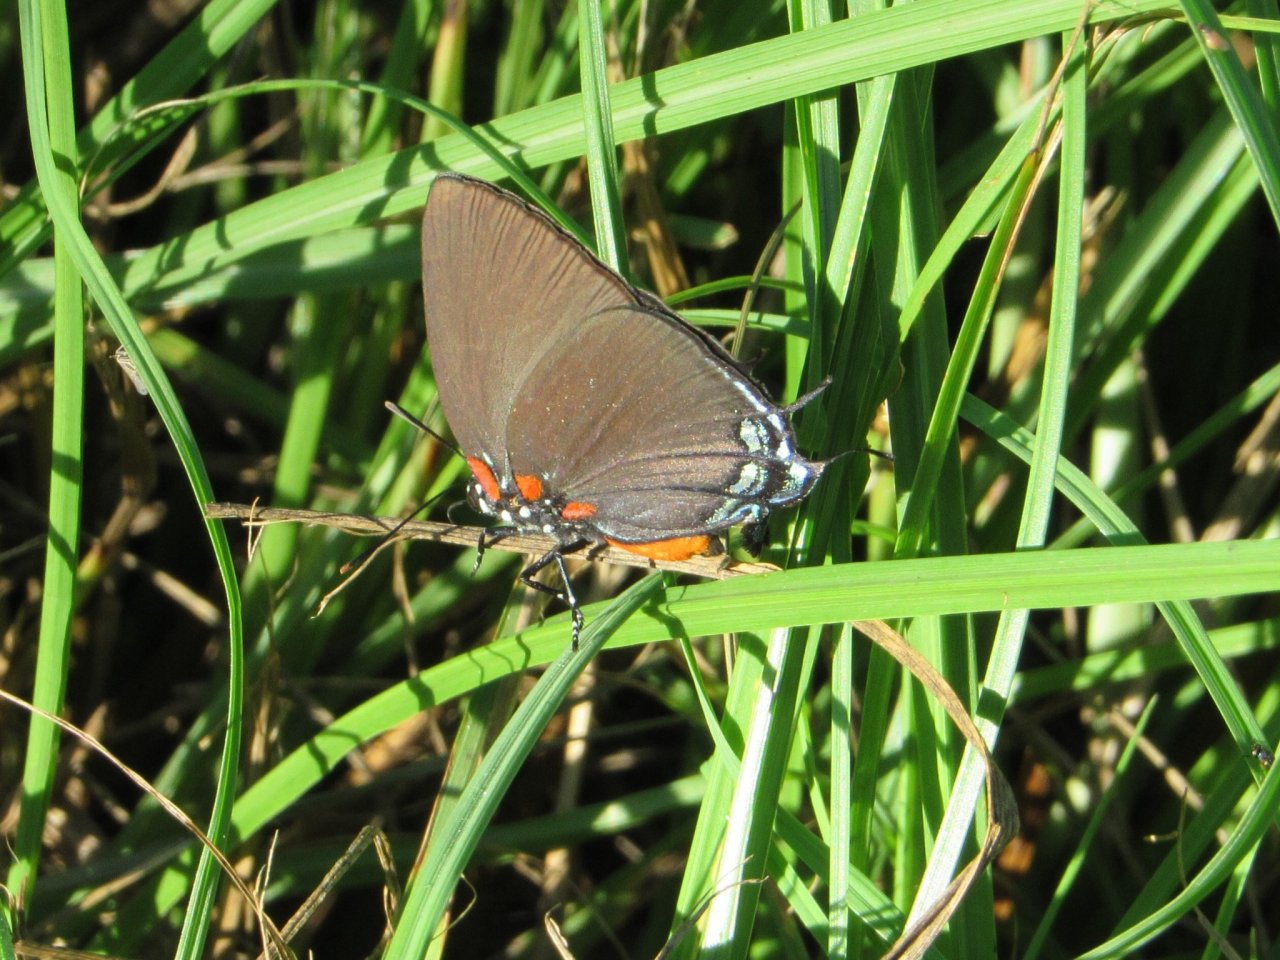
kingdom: Animalia
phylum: Arthropoda
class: Insecta
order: Lepidoptera
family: Lycaenidae
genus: Atlides
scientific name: Atlides halesus
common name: Great Purple Hairstreak
